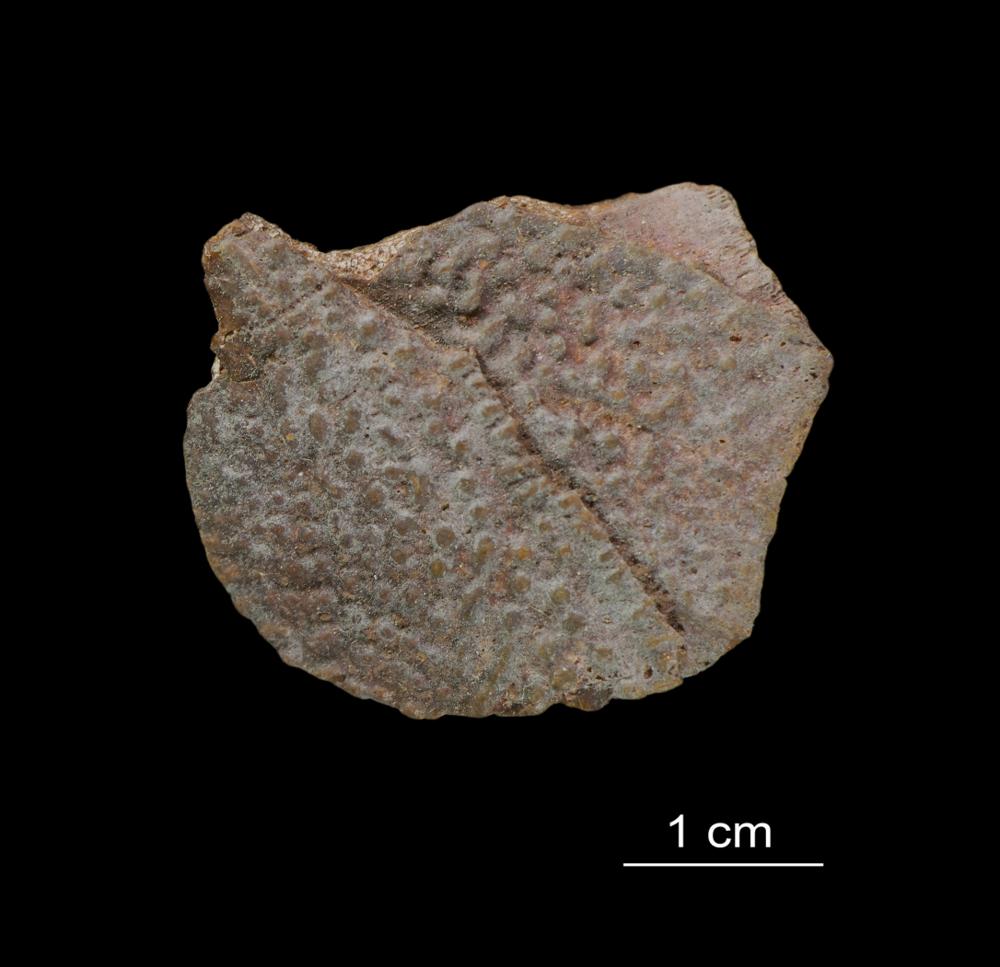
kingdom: Animalia
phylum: Chordata
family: Asterolepididae
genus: Asterolepis
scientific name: Asterolepis ornata
